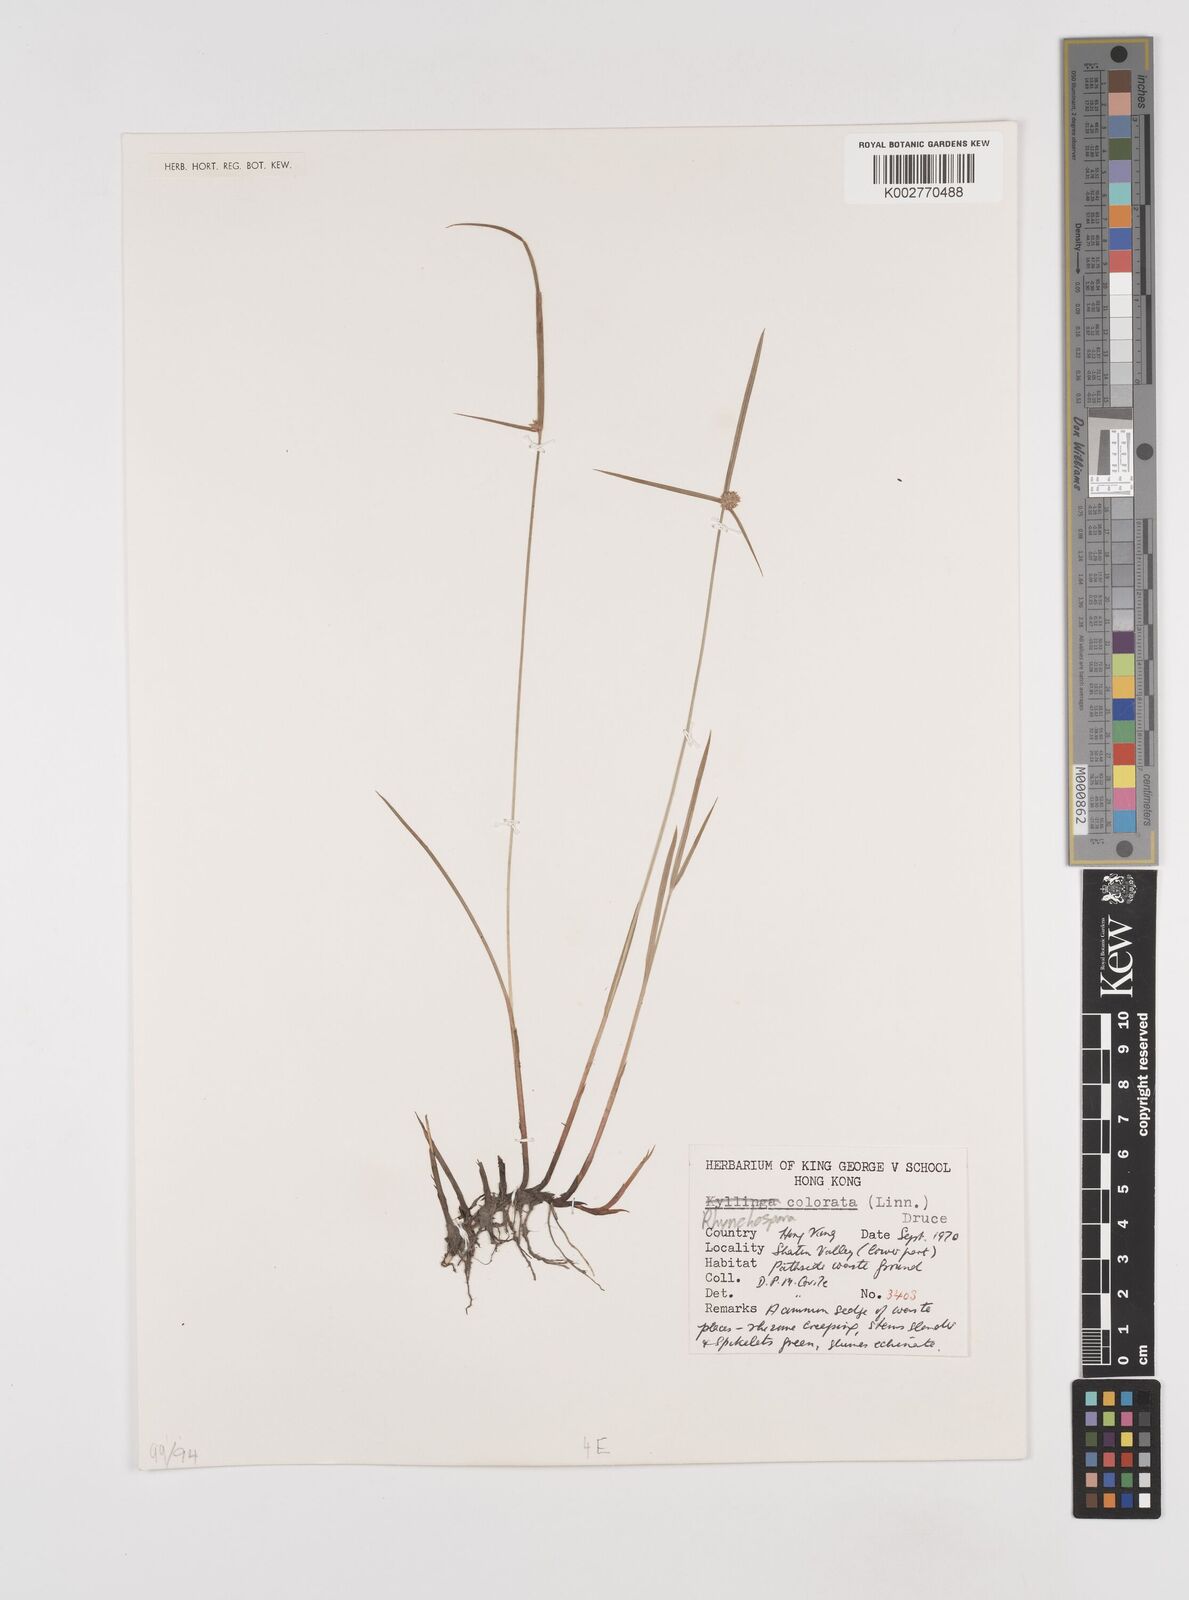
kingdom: Plantae
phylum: Tracheophyta
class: Liliopsida
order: Poales
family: Cyperaceae
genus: Rhynchospora
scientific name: Rhynchospora
